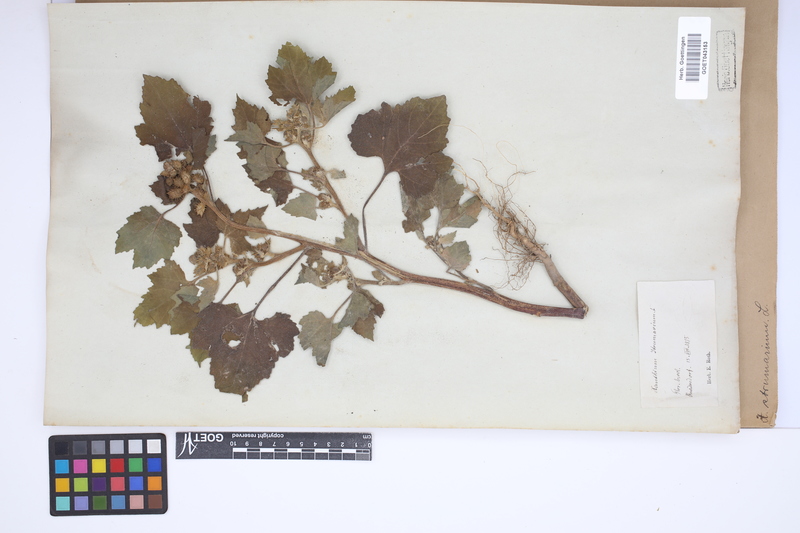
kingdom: Plantae
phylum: Tracheophyta
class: Magnoliopsida
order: Asterales
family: Asteraceae
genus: Xanthium
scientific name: Xanthium strumarium
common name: Rough cocklebur
